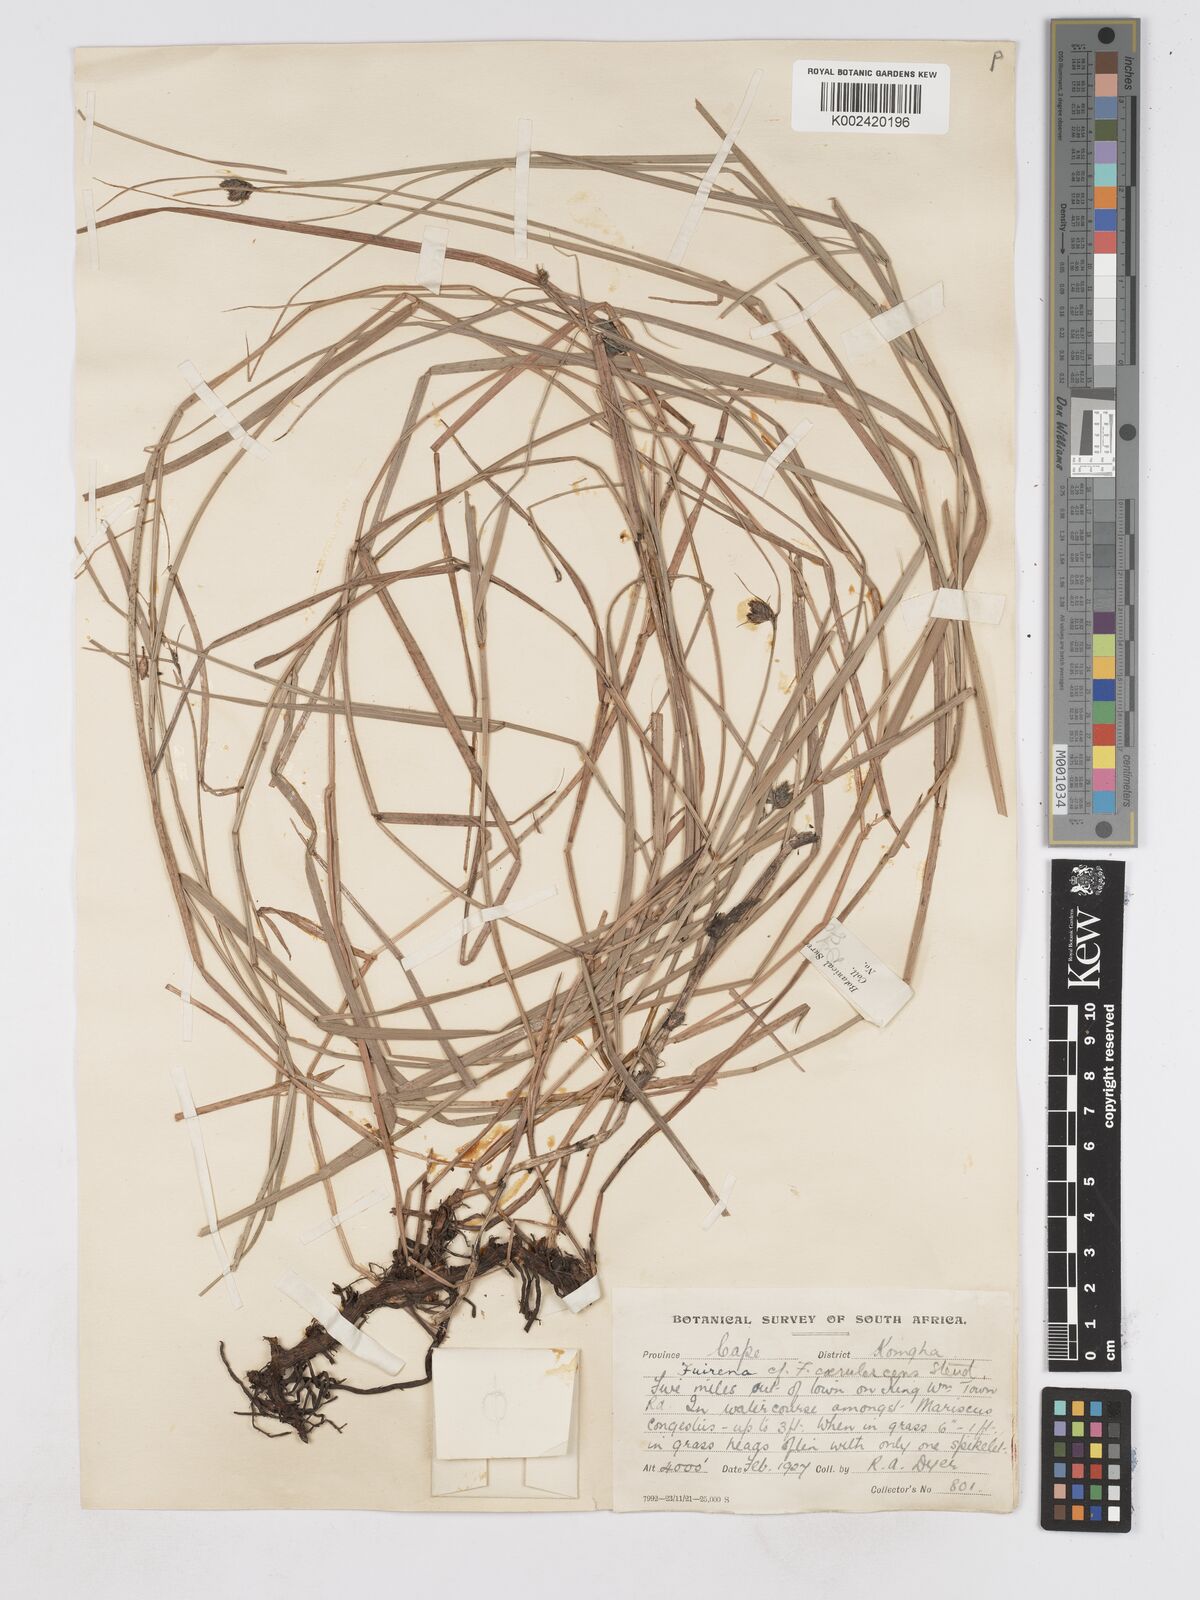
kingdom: Plantae
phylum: Tracheophyta
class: Liliopsida
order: Poales
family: Cyperaceae
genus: Fuirena
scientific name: Fuirena coerulescens
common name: Blue umbrella-sedge
